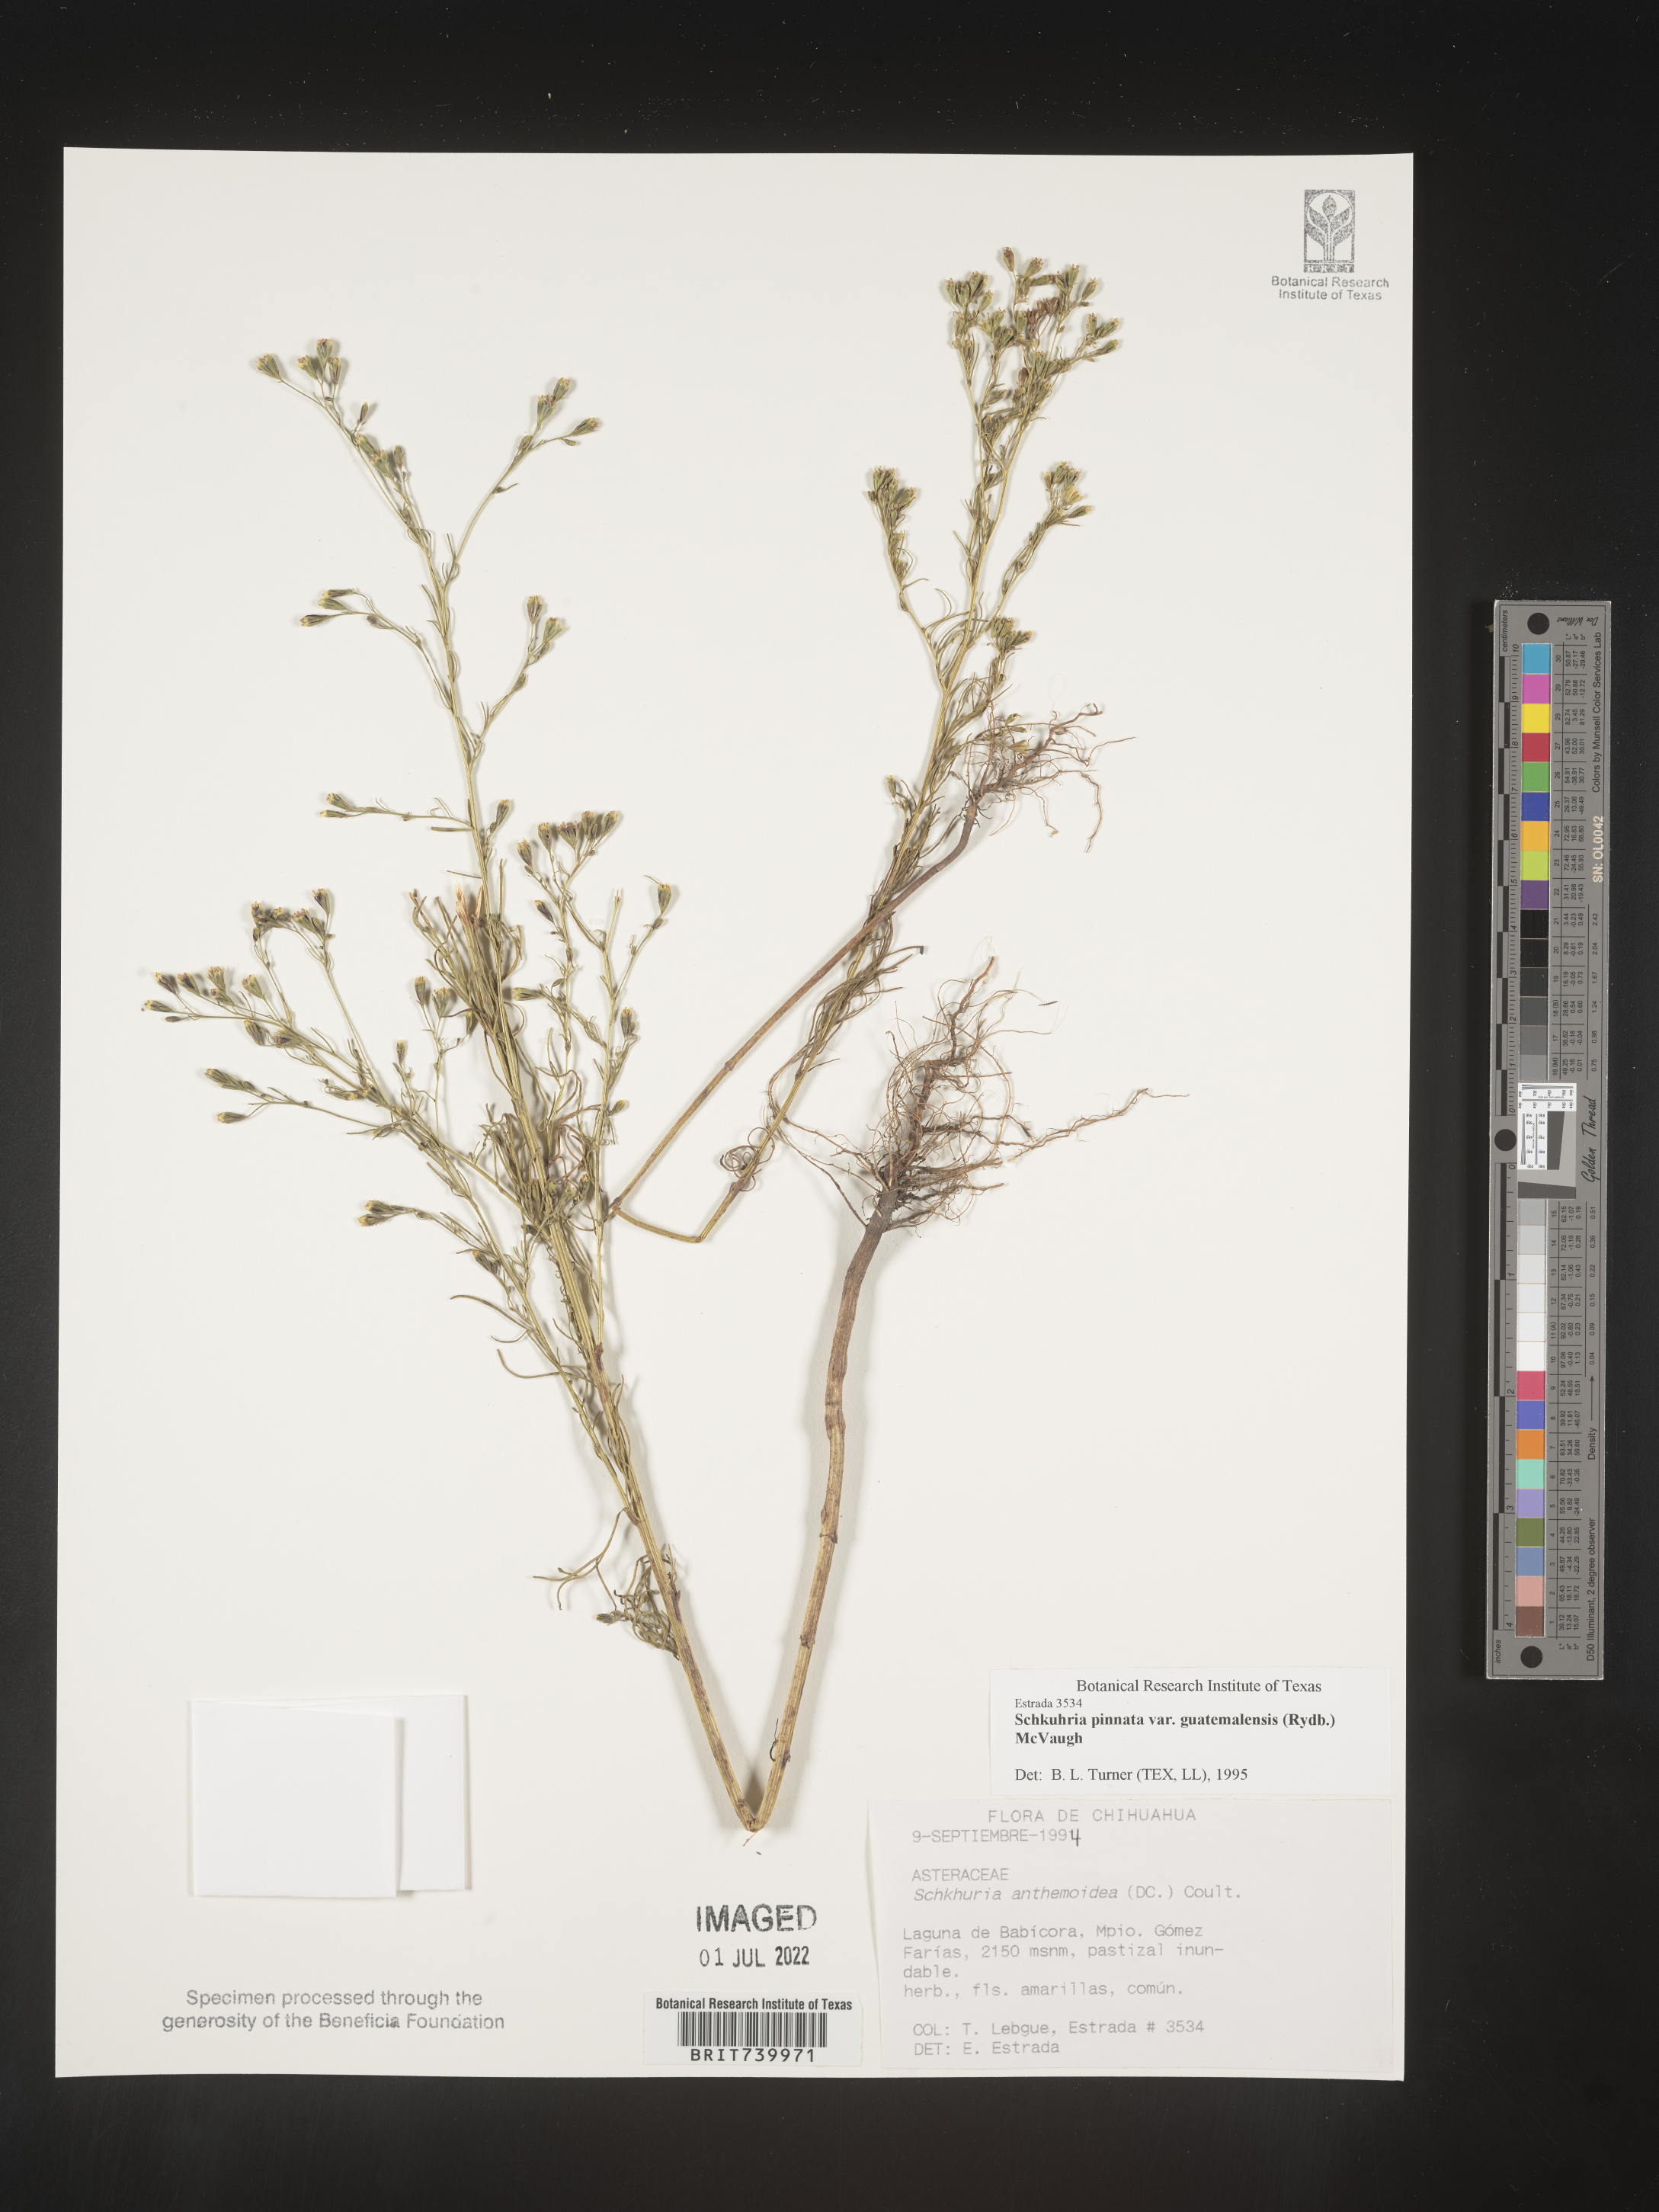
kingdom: Plantae
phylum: Tracheophyta
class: Magnoliopsida
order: Asterales
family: Asteraceae
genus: Schkuhria
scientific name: Schkuhria
